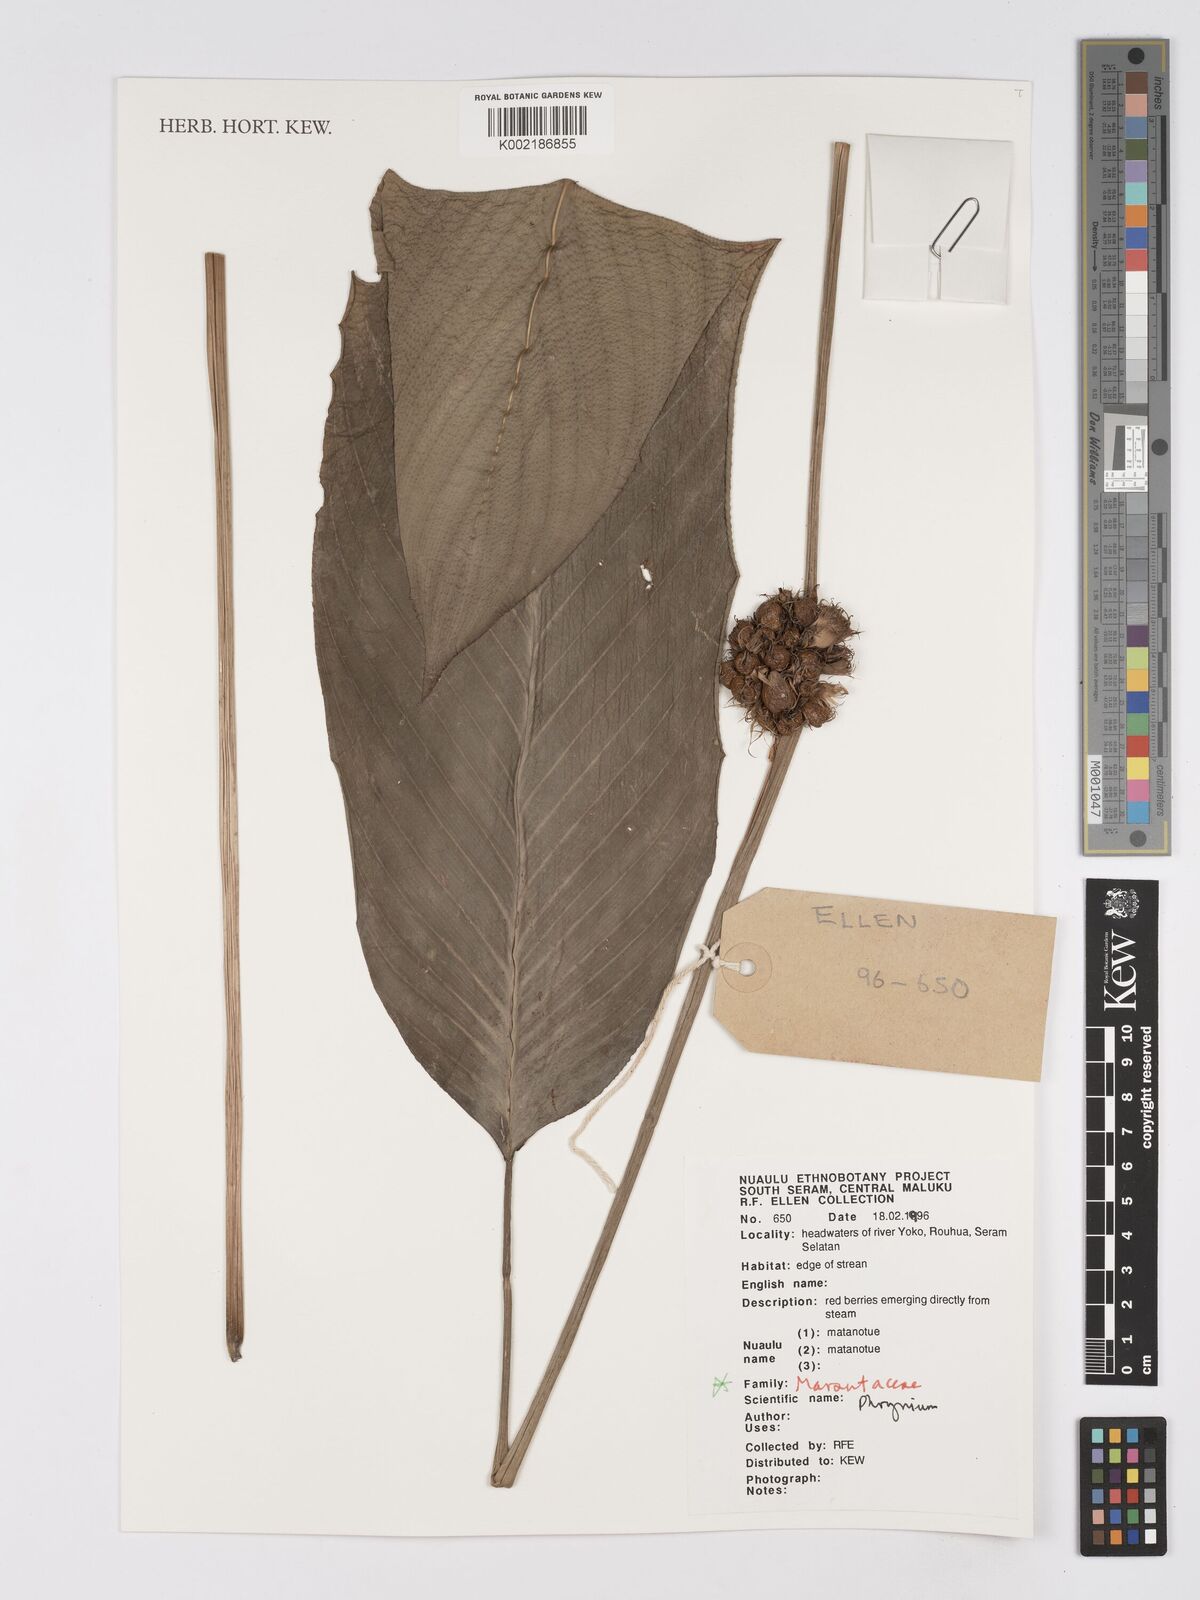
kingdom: Plantae
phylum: Tracheophyta
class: Liliopsida
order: Zingiberales
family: Marantaceae
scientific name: Marantaceae
